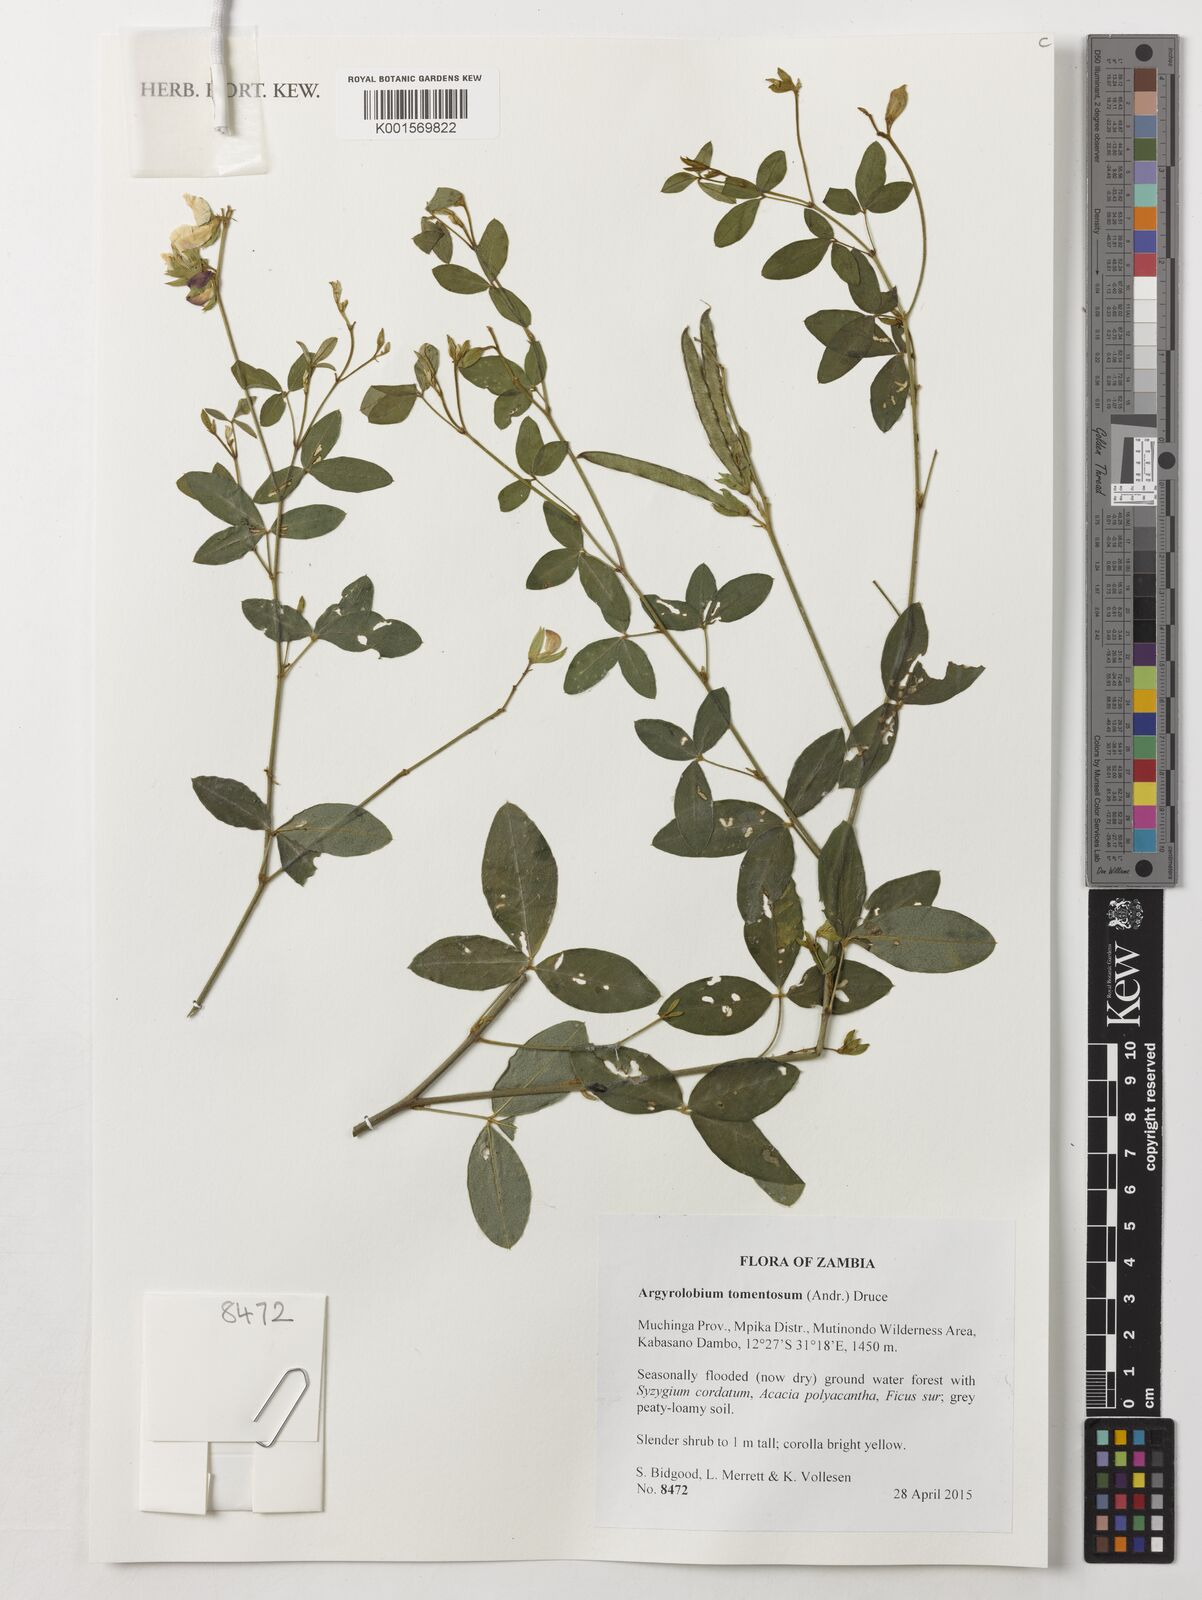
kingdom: Plantae
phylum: Tracheophyta
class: Magnoliopsida
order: Fabales
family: Fabaceae
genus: Argyrolobium
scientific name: Argyrolobium tomentosum
